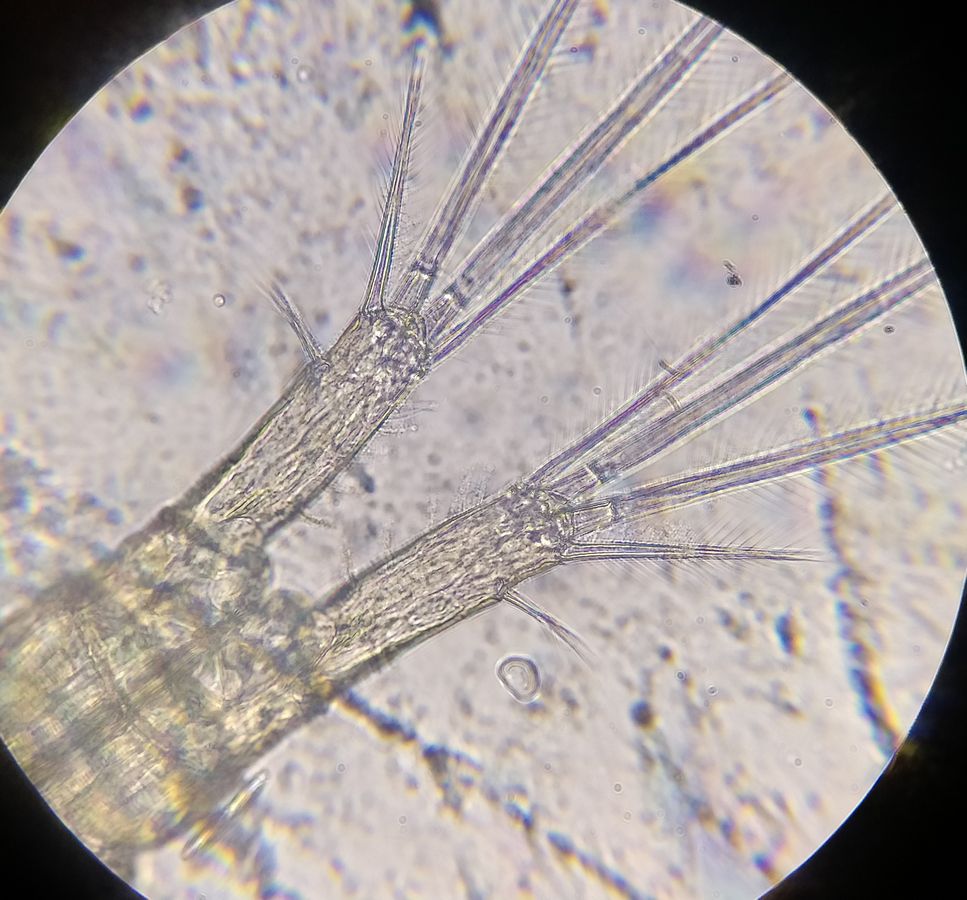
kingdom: Animalia
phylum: Arthropoda
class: Copepoda
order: Cyclopoida
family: Cyclopidae
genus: Megacyclops
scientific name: Megacyclops viridis
